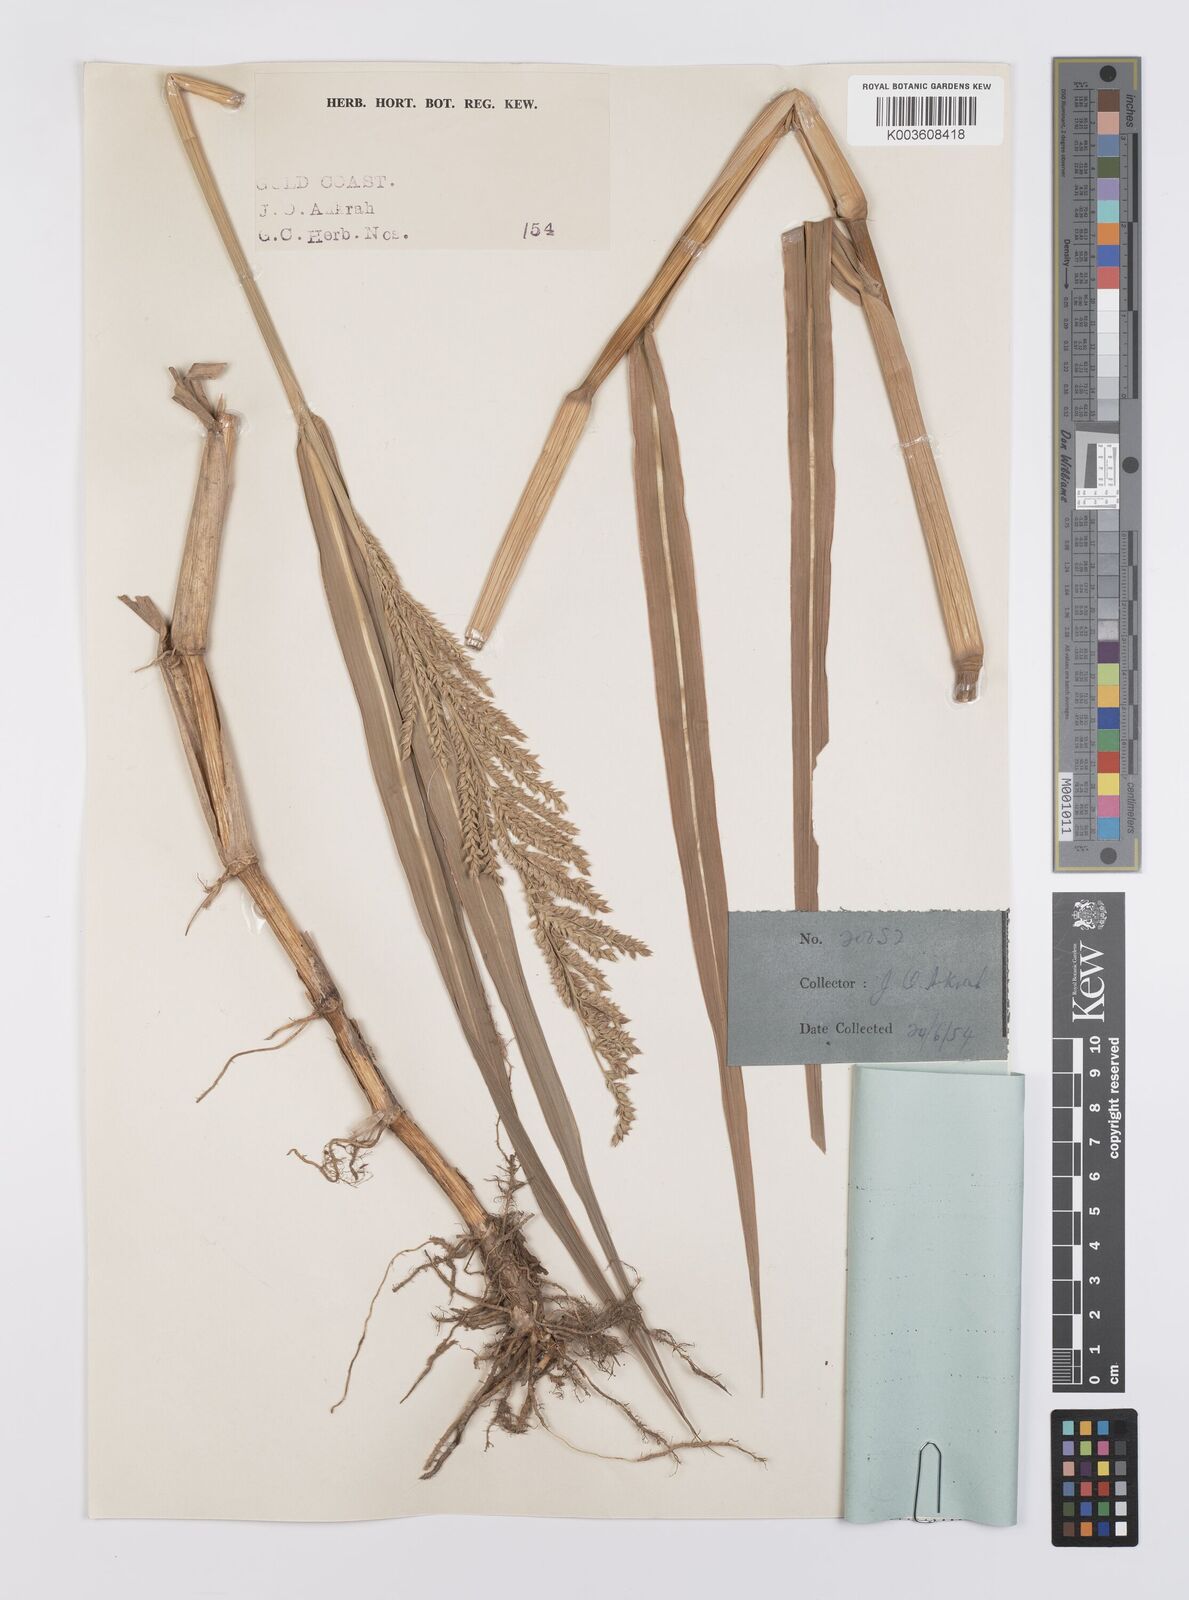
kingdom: Plantae
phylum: Tracheophyta
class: Liliopsida
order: Poales
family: Poaceae
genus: Echinochloa
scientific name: Echinochloa pyramidalis
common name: Antelope grass
